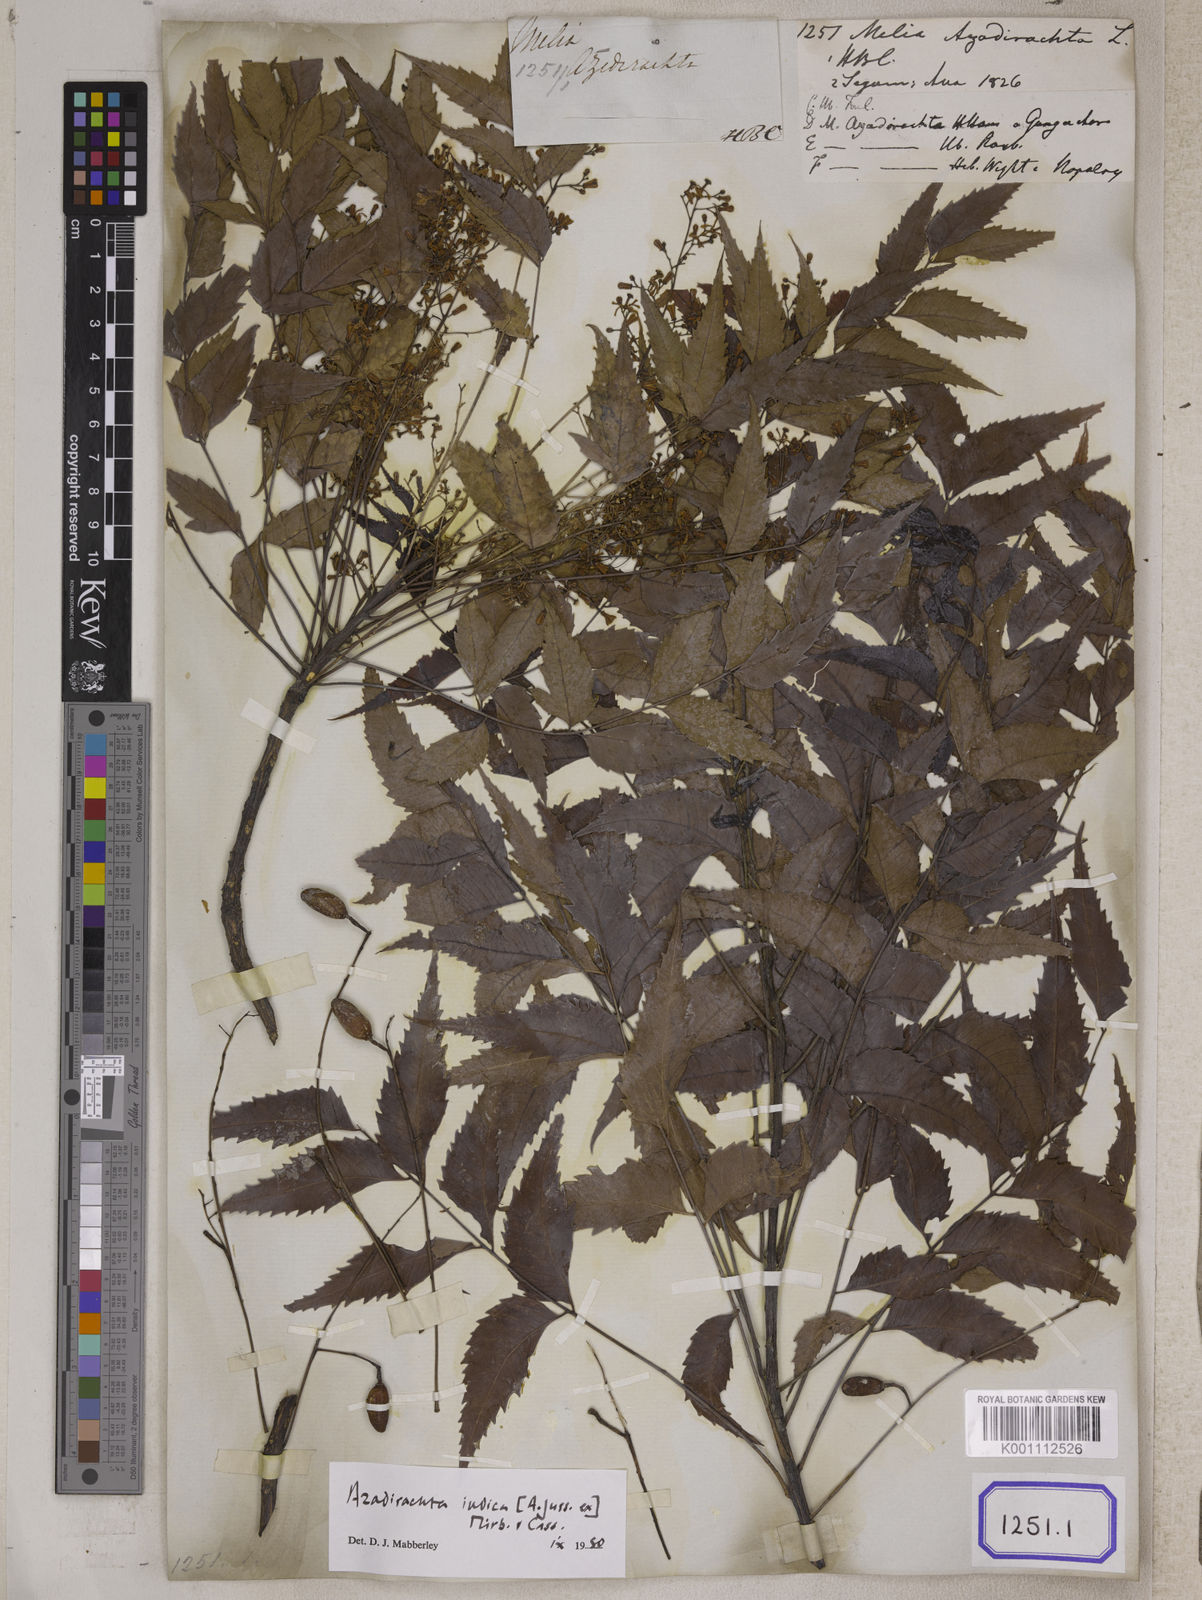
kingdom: Plantae
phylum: Tracheophyta
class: Magnoliopsida
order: Sapindales
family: Meliaceae
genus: Azadirachta
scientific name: Azadirachta indica
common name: Neem
